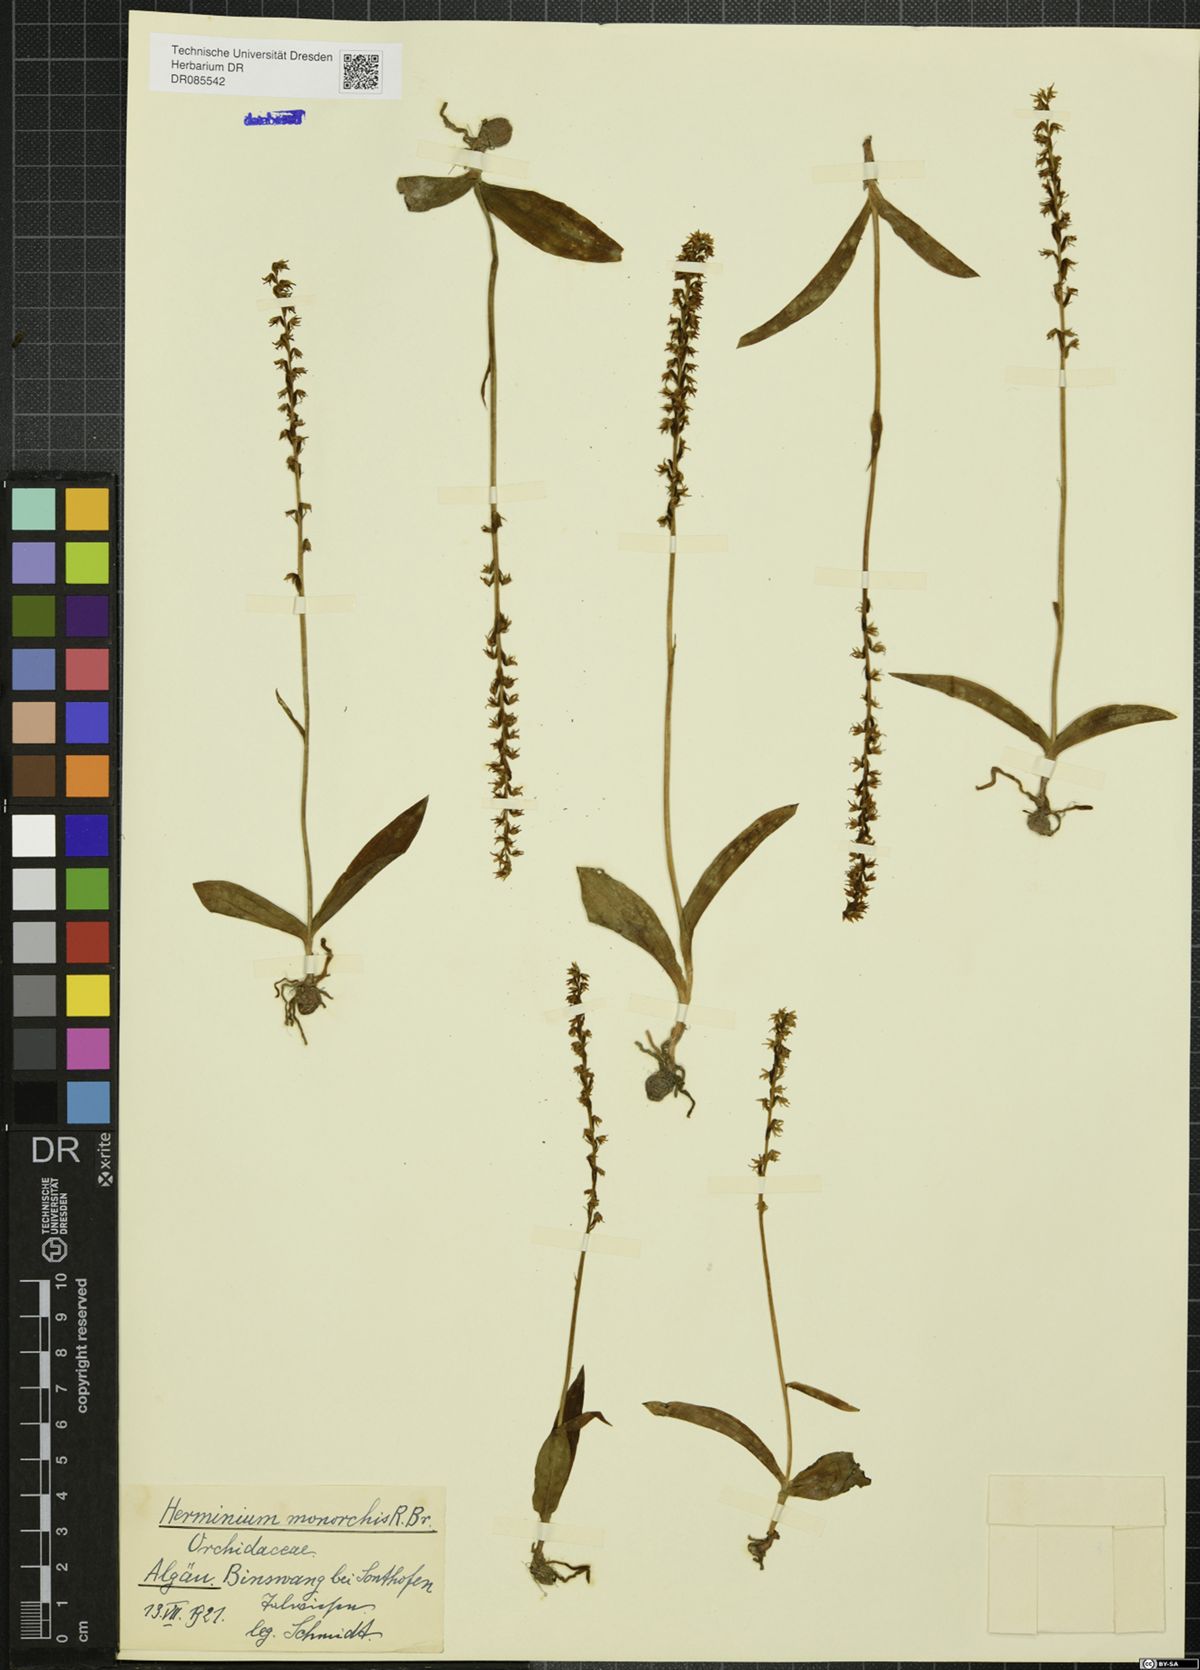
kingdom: Plantae
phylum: Tracheophyta
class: Liliopsida
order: Asparagales
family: Orchidaceae
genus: Herminium
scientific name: Herminium monorchis
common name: Musk orchid
